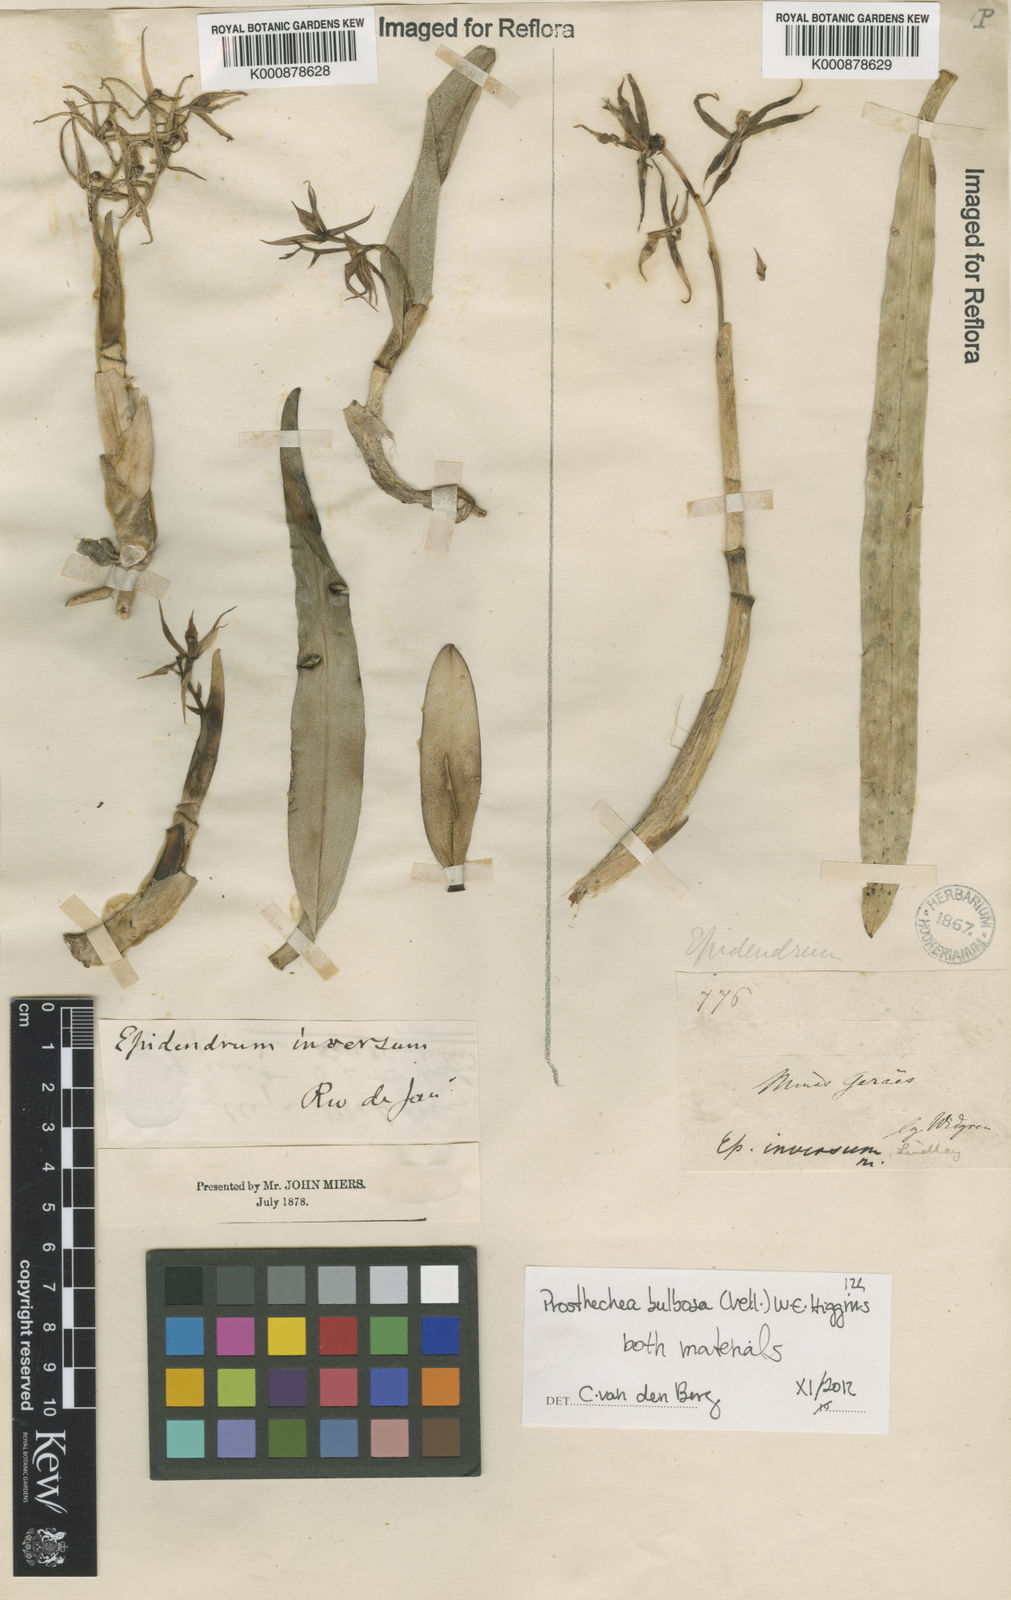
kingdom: Plantae
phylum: Tracheophyta
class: Liliopsida
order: Asparagales
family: Orchidaceae
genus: Prosthechea
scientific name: Prosthechea bulbosa
